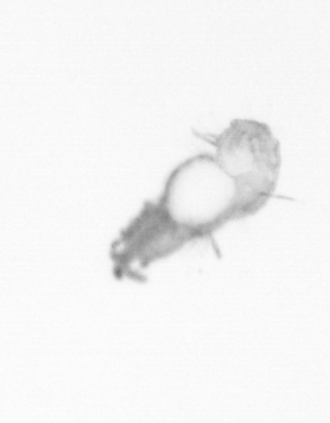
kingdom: Animalia
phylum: Annelida
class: Polychaeta
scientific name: Polychaeta
